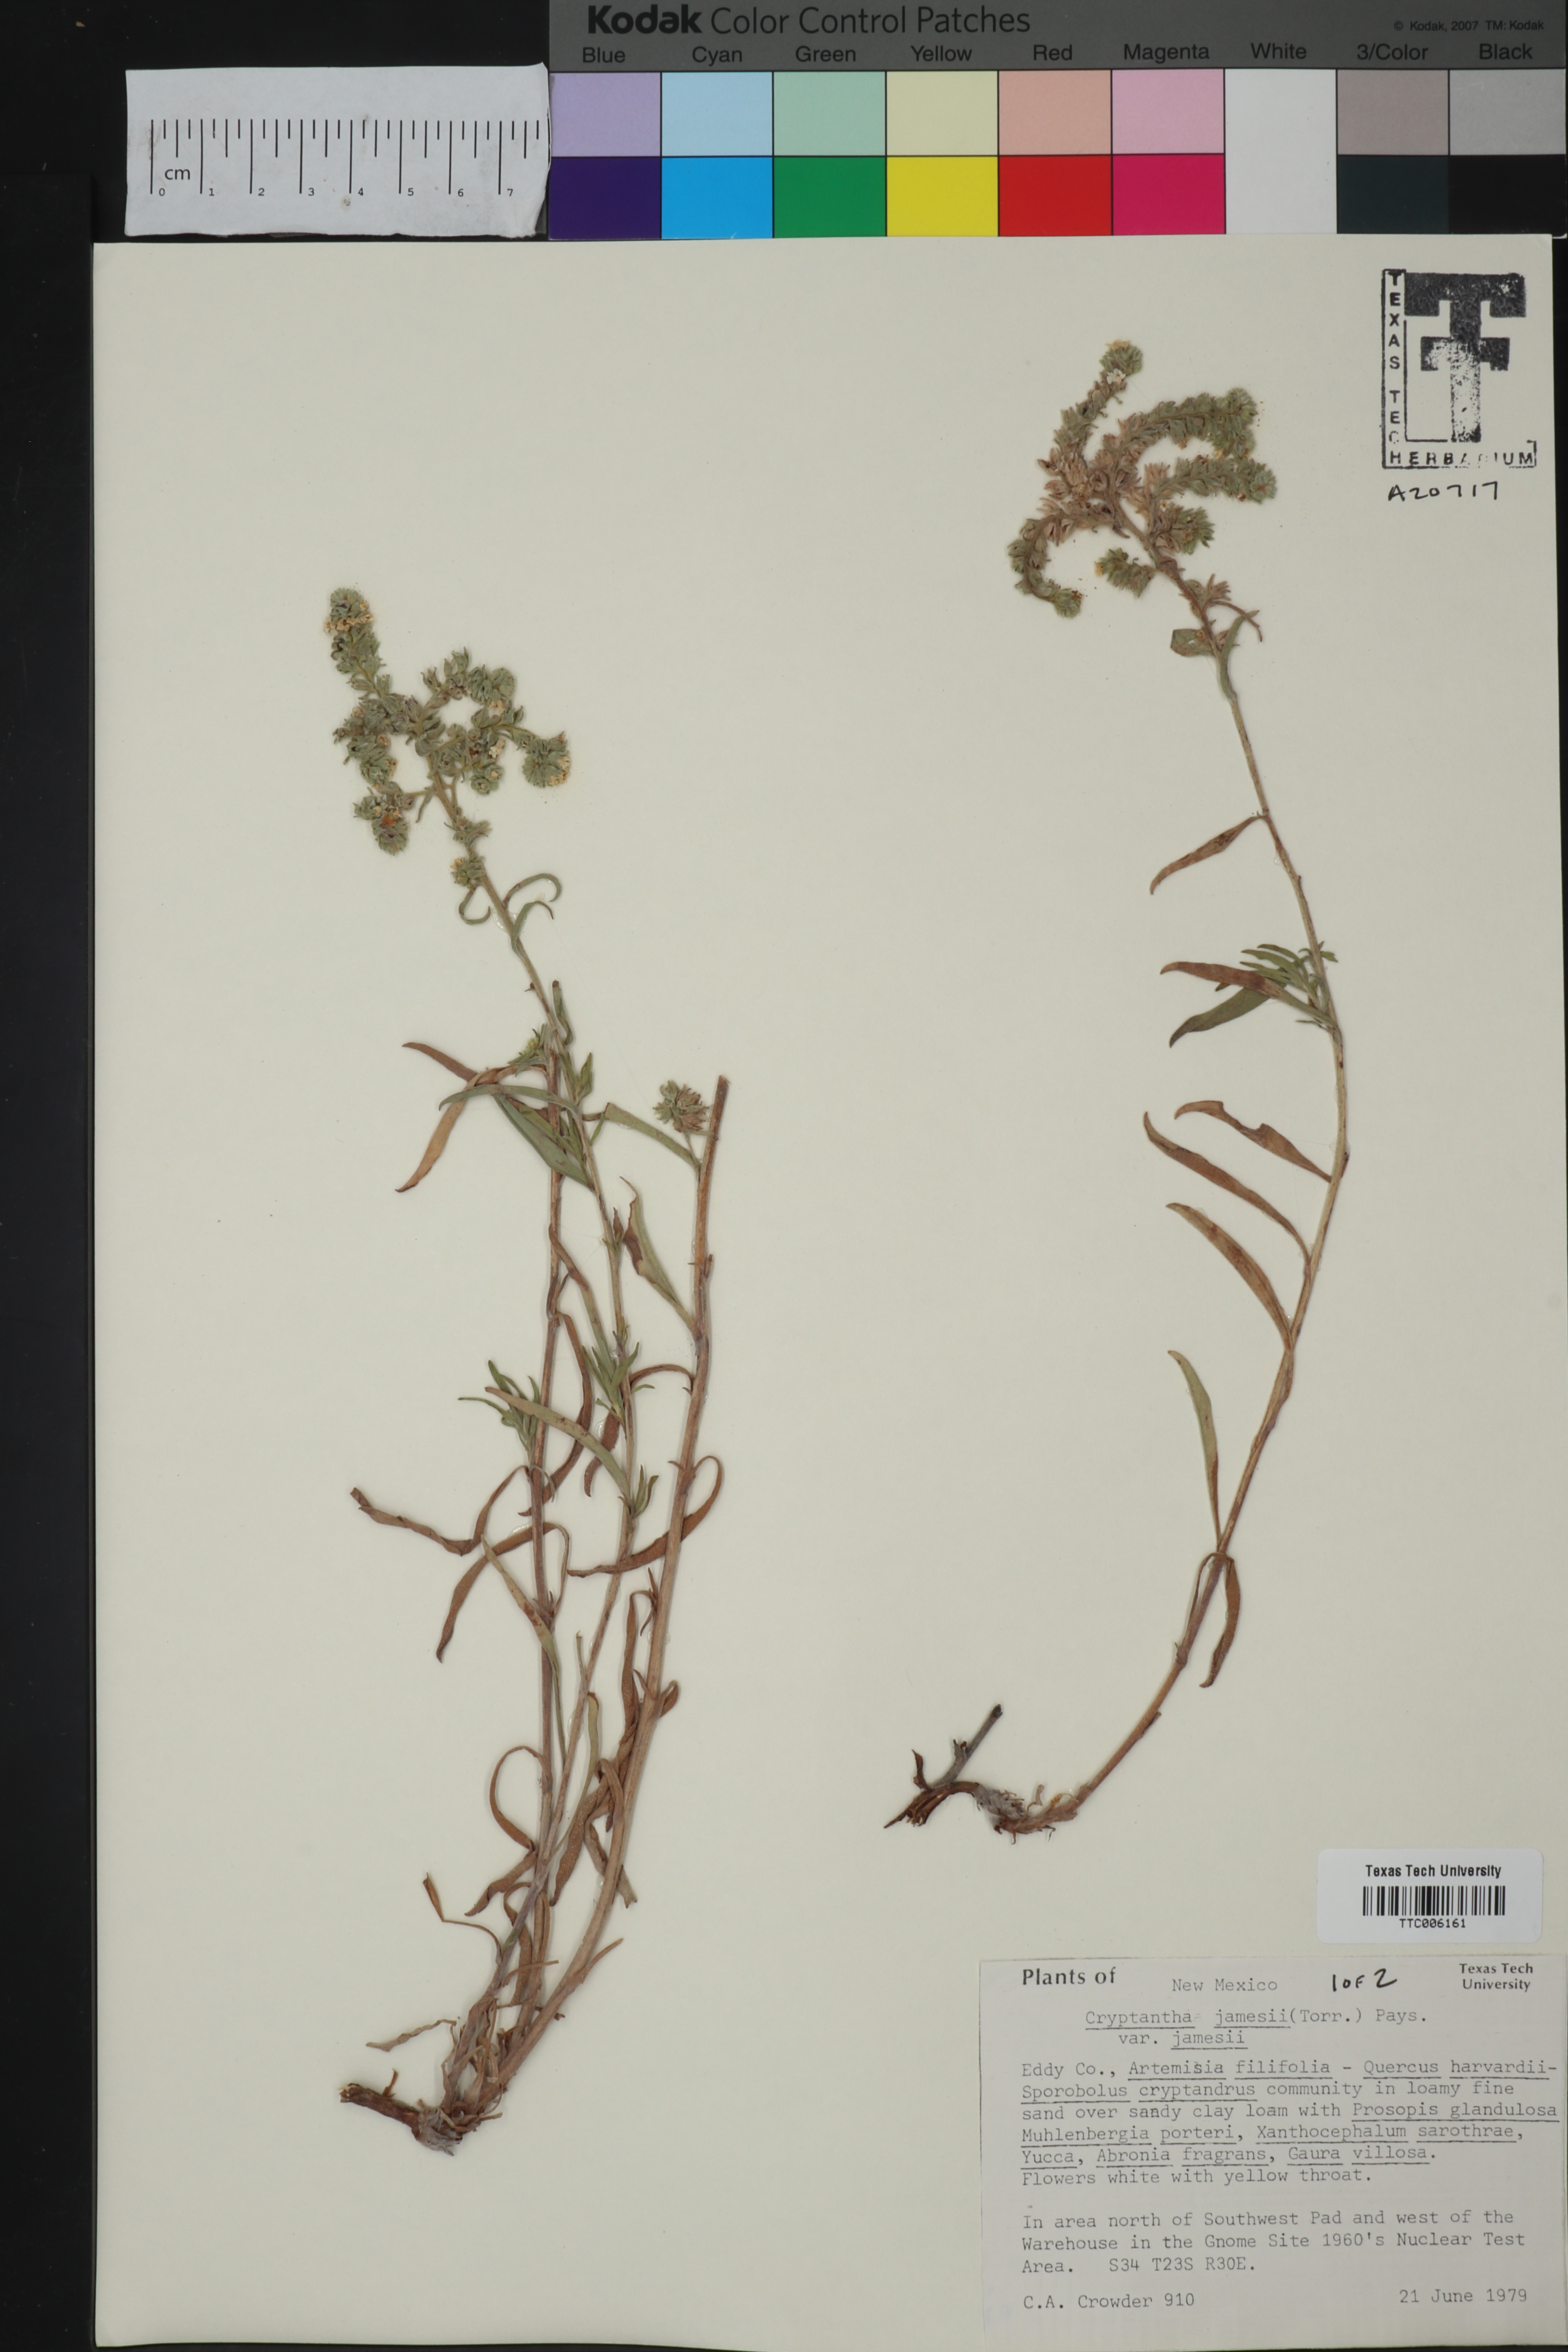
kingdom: Plantae
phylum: Tracheophyta
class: Magnoliopsida
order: Boraginales
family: Boraginaceae
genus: Oreocarya
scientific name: Oreocarya suffruticosa
